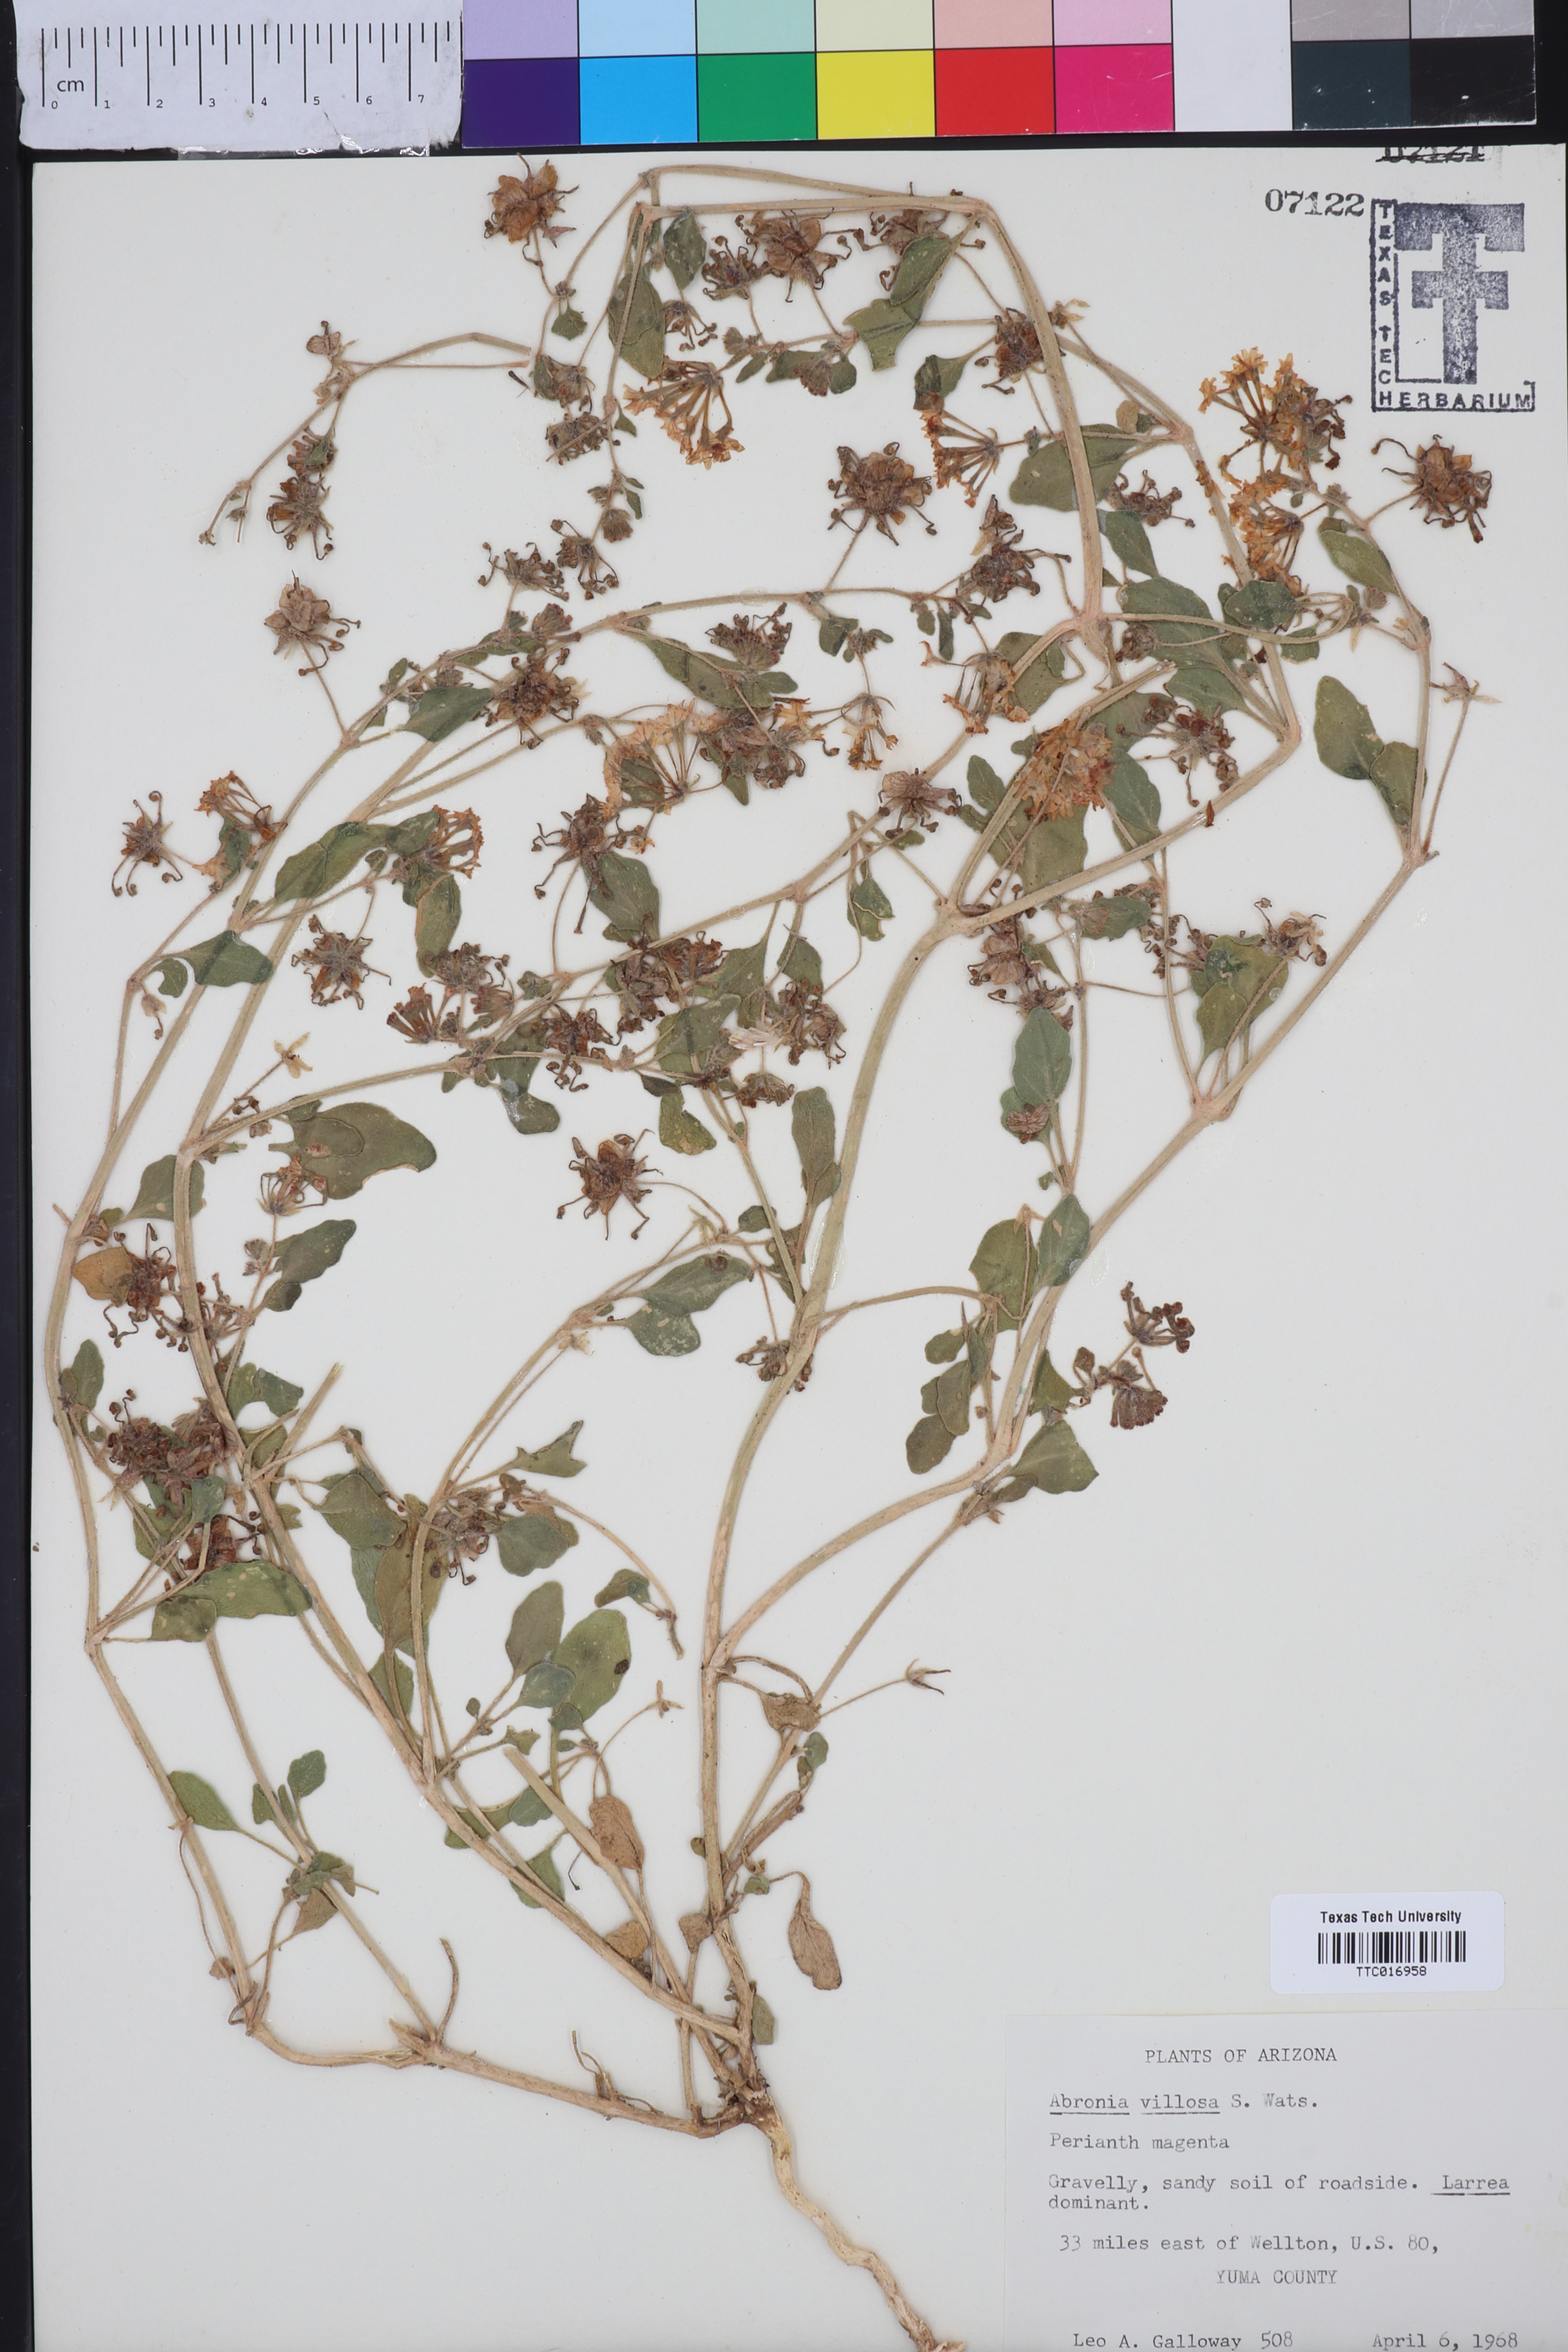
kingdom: Plantae
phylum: Tracheophyta
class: Magnoliopsida
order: Caryophyllales
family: Nyctaginaceae
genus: Abronia
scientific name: Abronia villosa
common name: Desert sand-verbena
